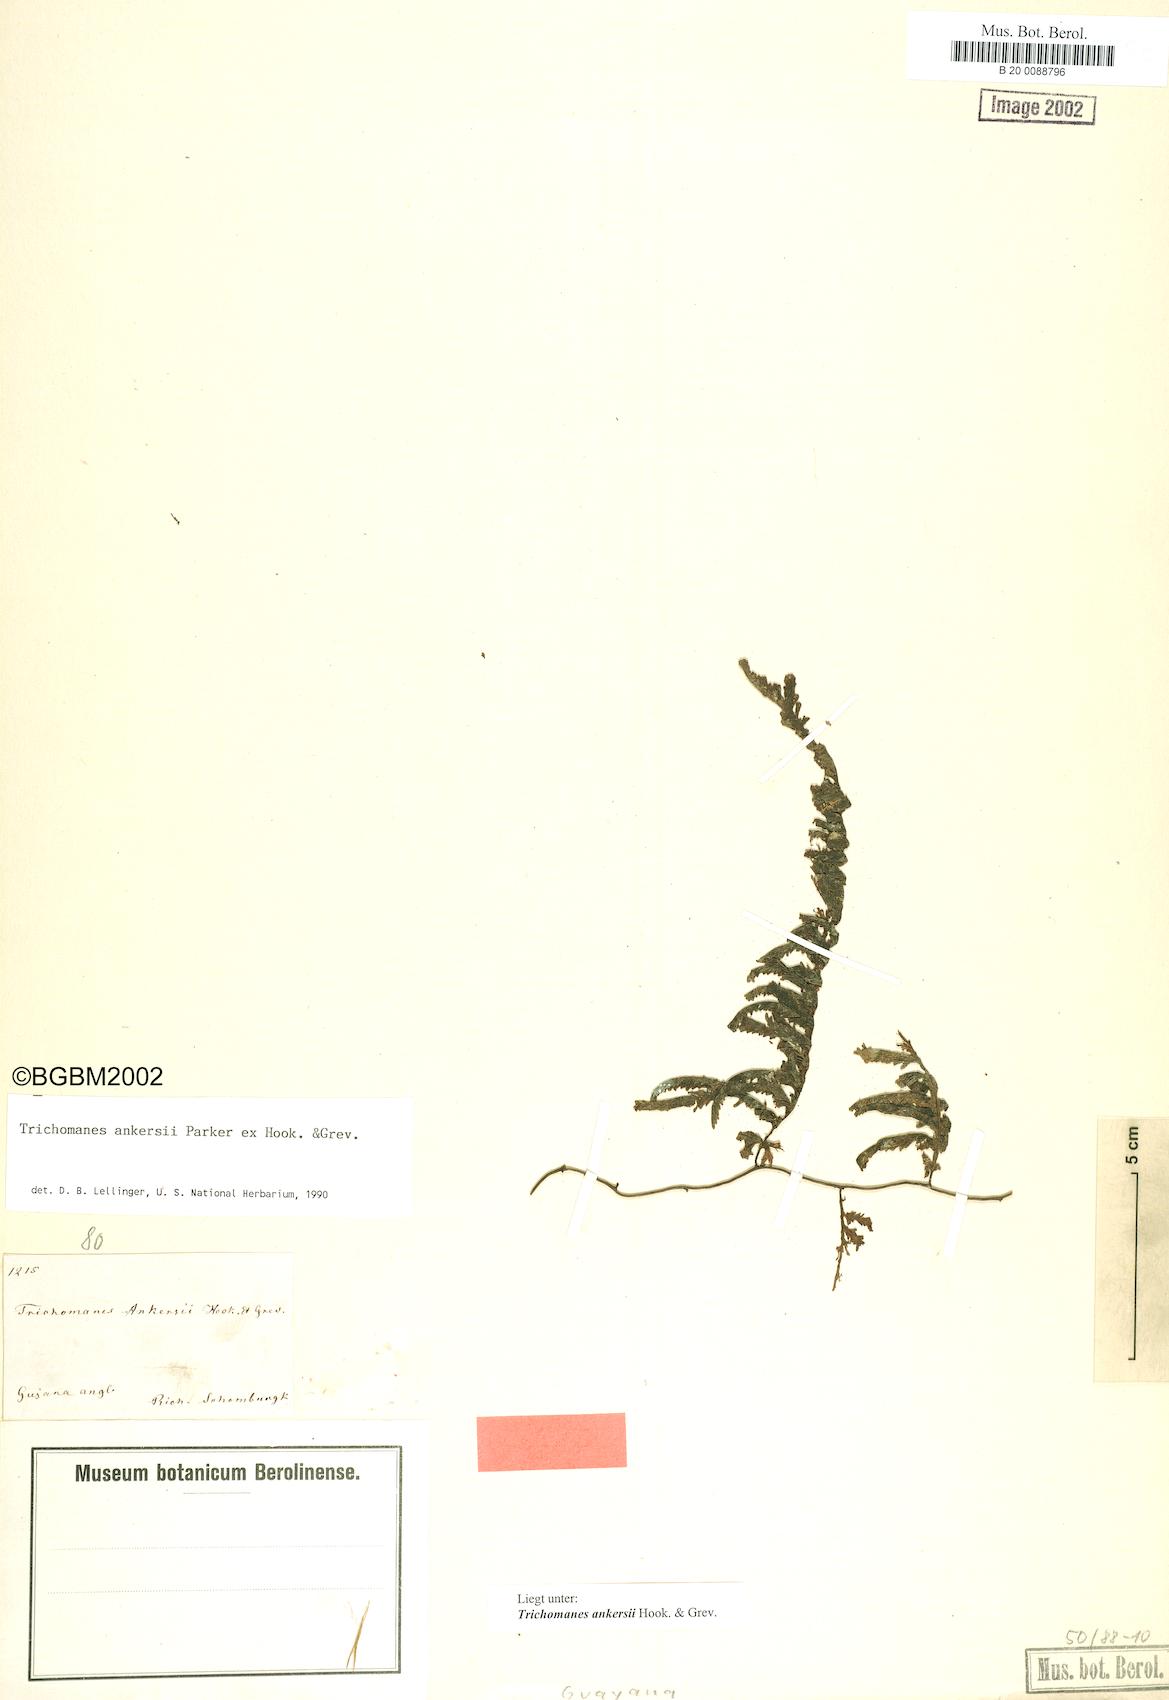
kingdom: Plantae
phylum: Tracheophyta
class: Polypodiopsida
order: Hymenophyllales
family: Hymenophyllaceae
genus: Trichomanes
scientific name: Trichomanes ankersii
